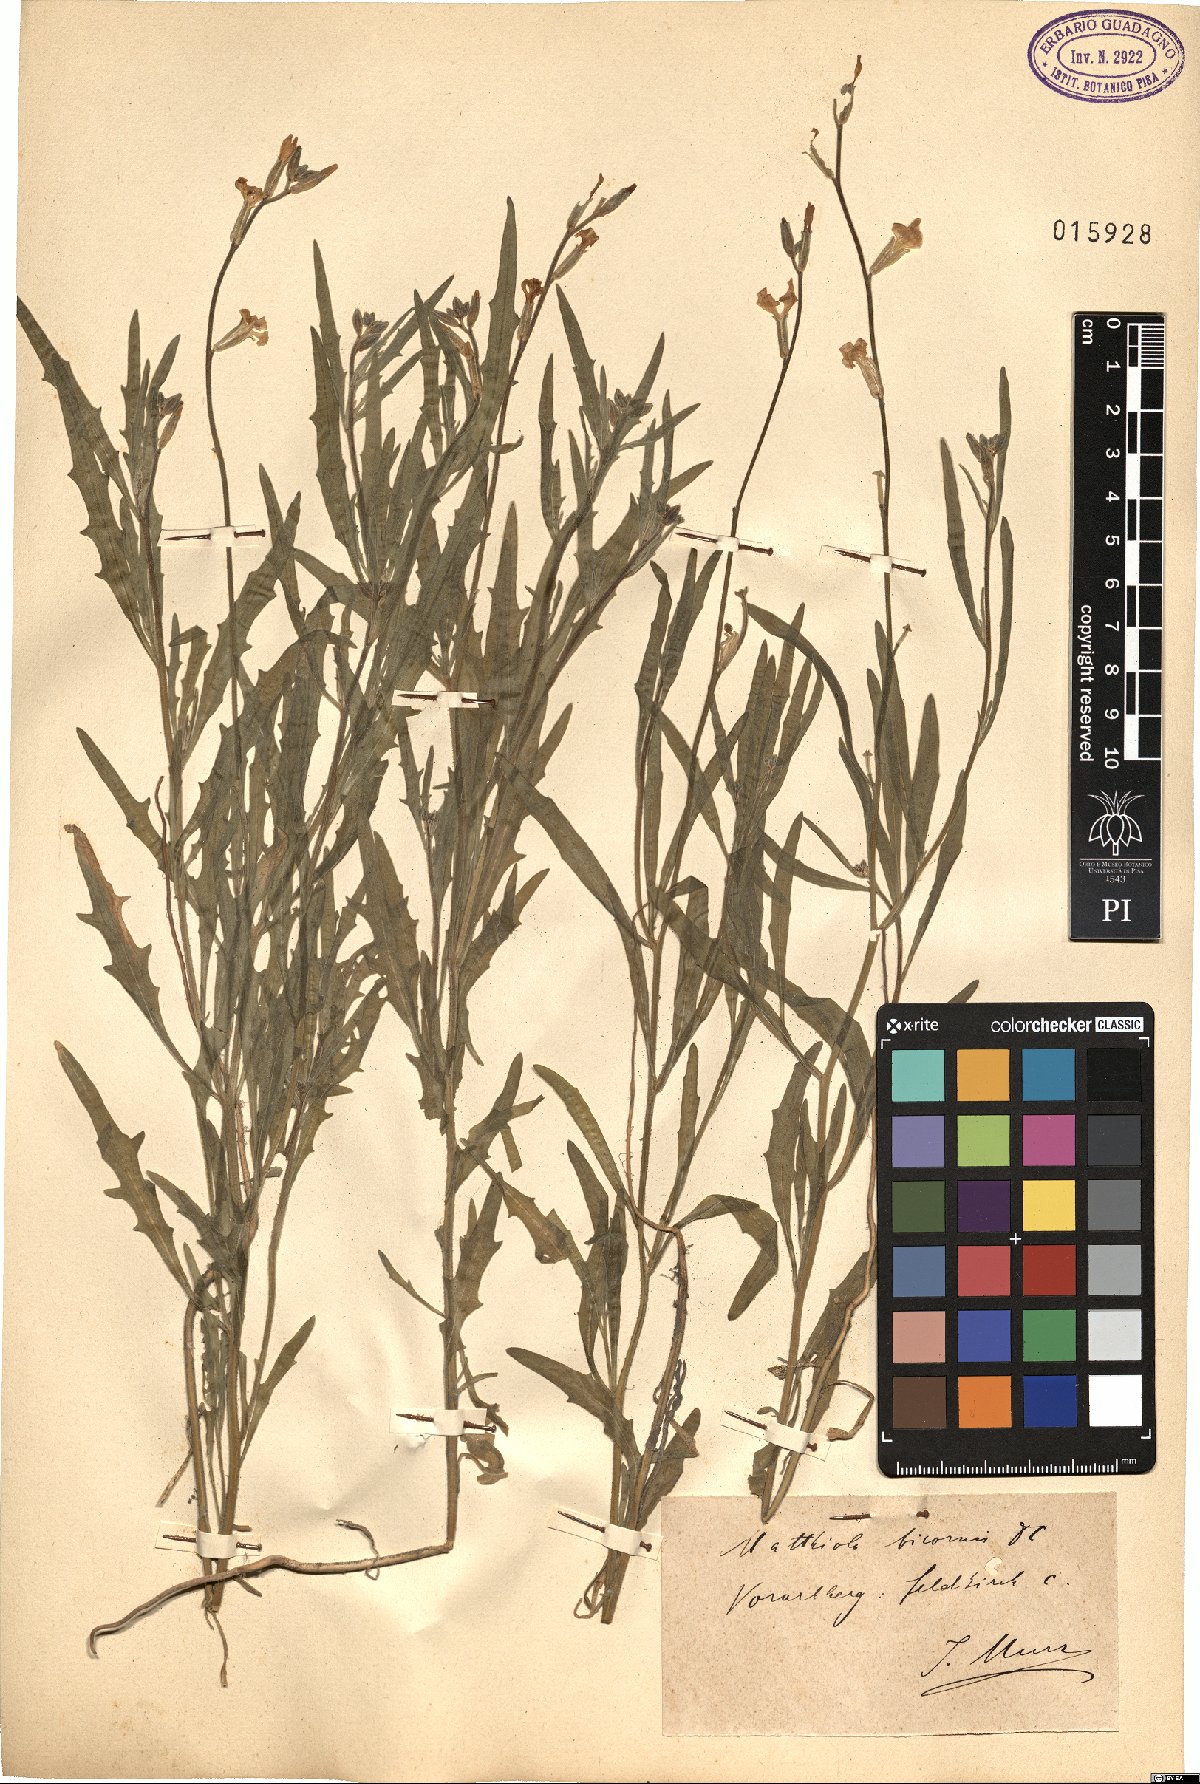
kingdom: Plantae
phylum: Tracheophyta
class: Magnoliopsida
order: Brassicales
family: Brassicaceae
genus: Matthiola
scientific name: Matthiola longipetala
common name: Night-scented stock
